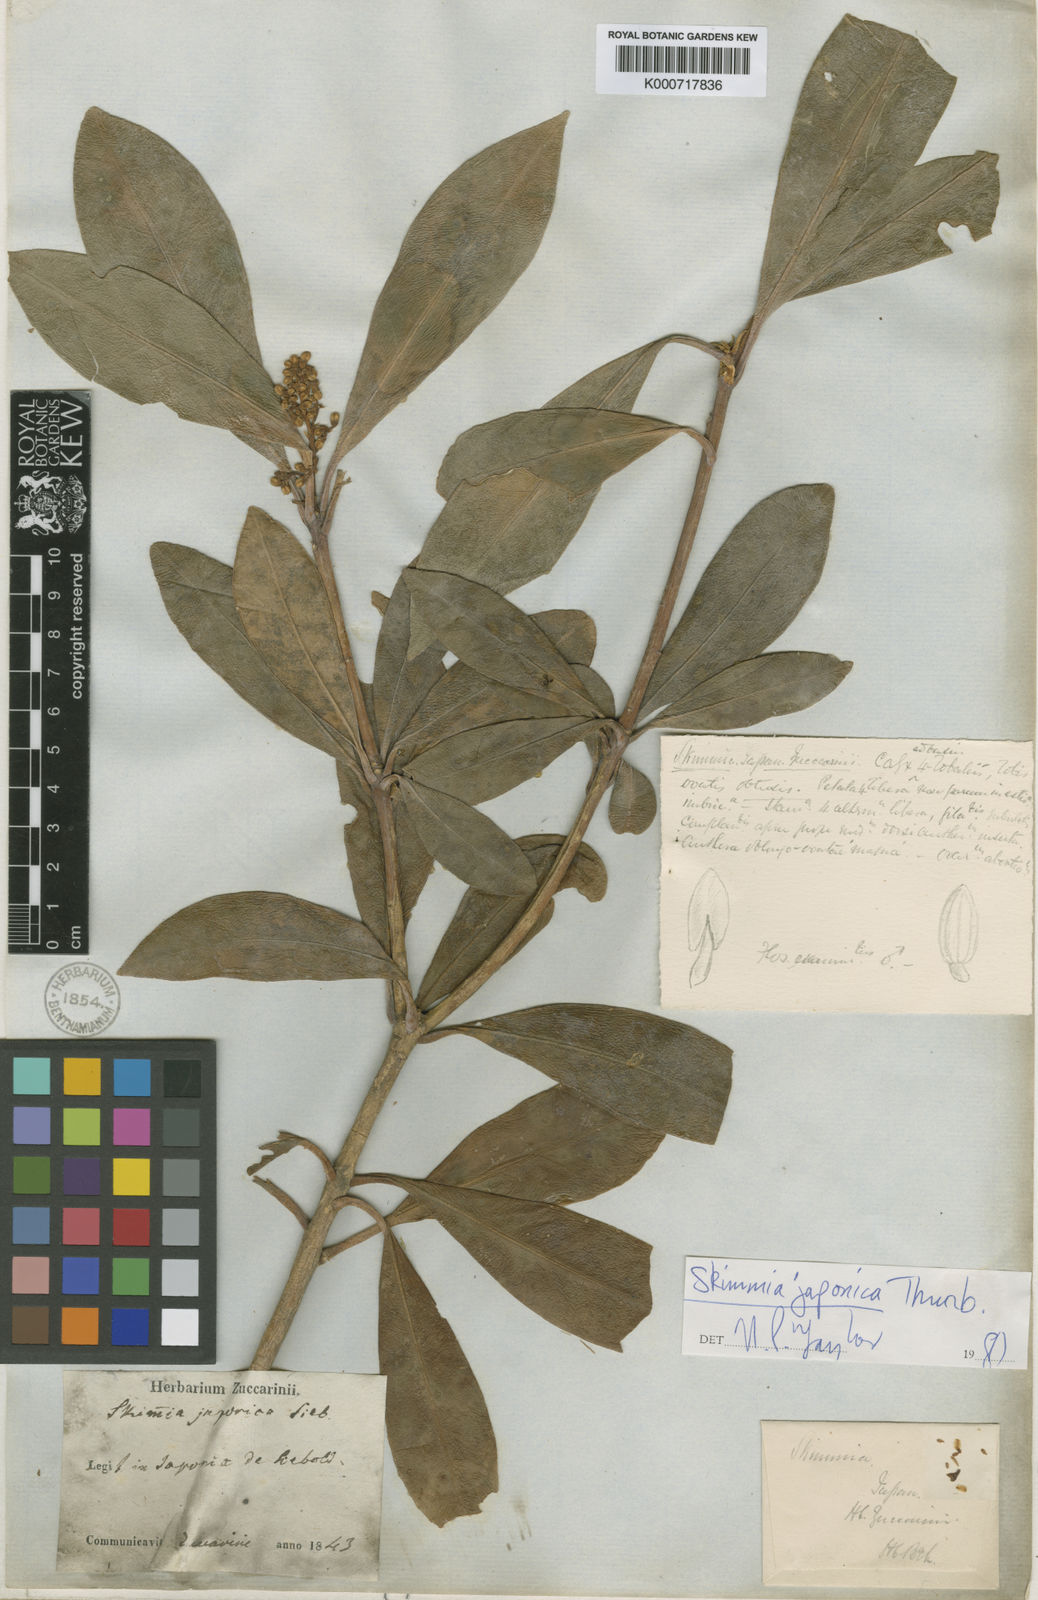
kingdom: Plantae
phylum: Tracheophyta
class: Magnoliopsida
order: Sapindales
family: Rutaceae
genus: Skimmia
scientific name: Skimmia japonica
